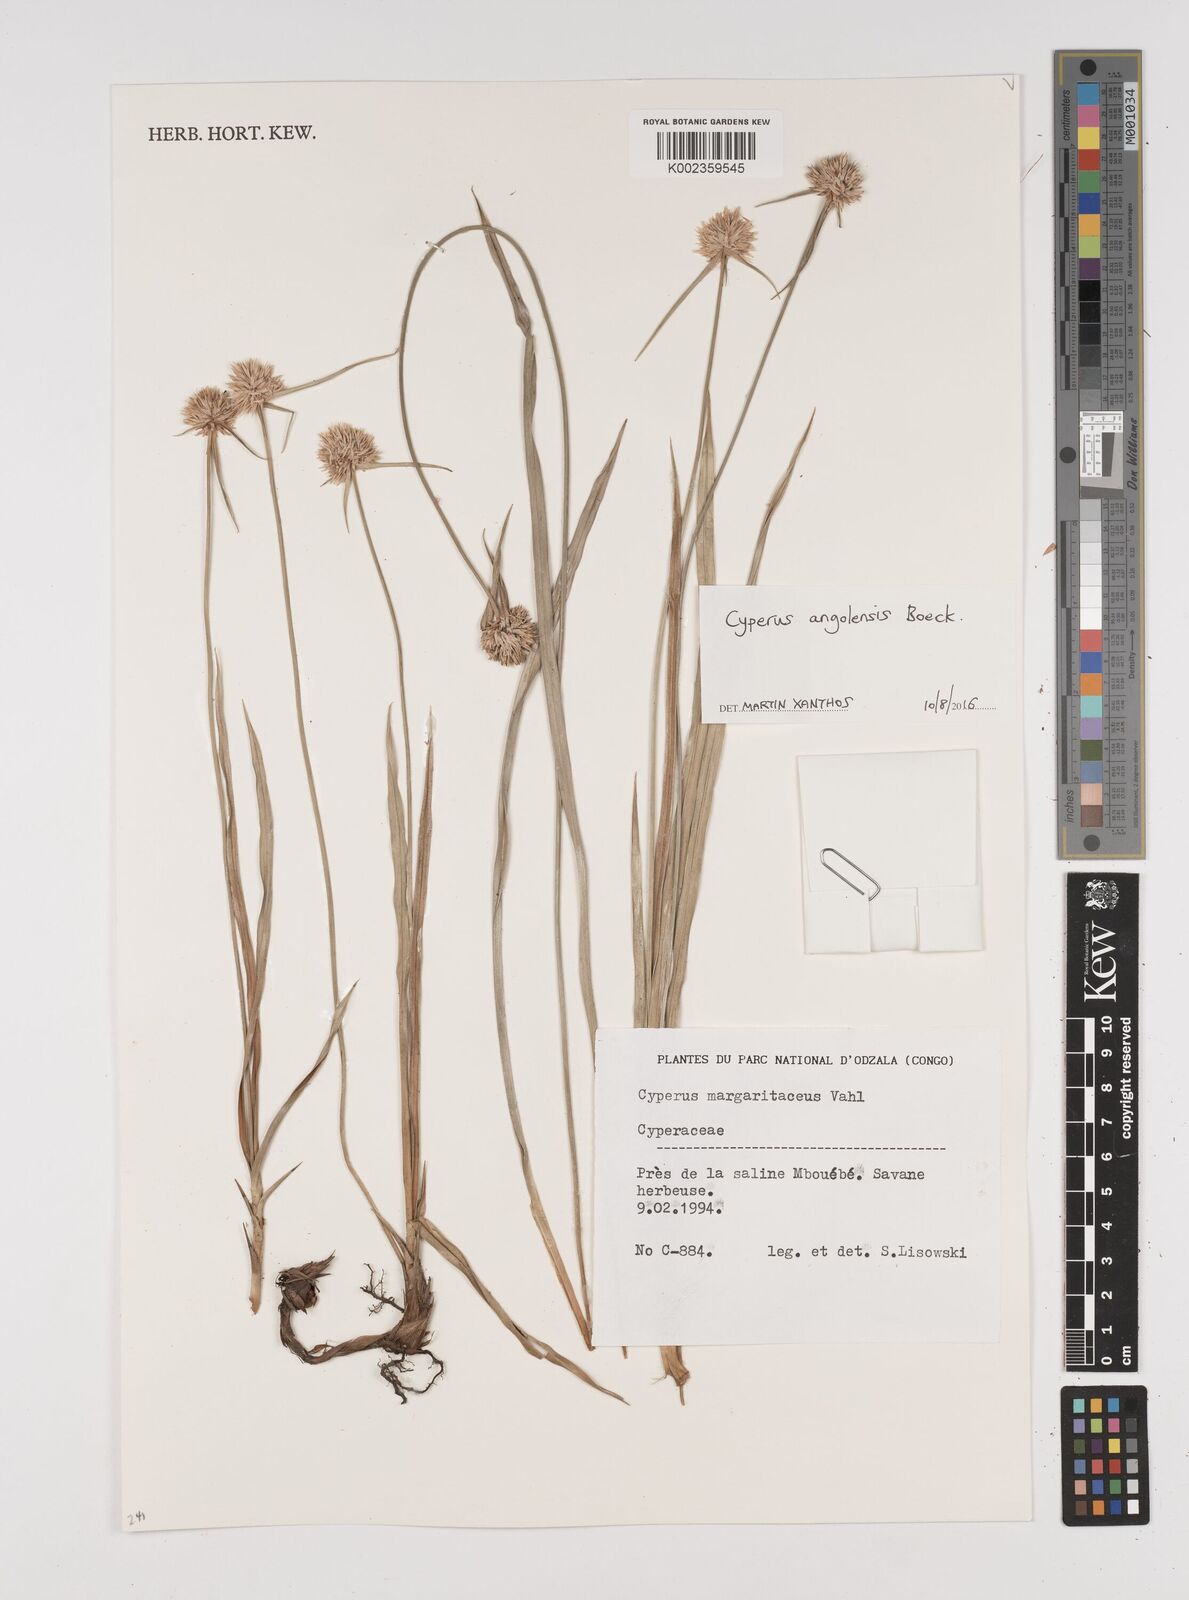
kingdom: Plantae
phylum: Tracheophyta
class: Liliopsida
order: Poales
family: Cyperaceae
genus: Cyperus
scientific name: Cyperus angolensis
